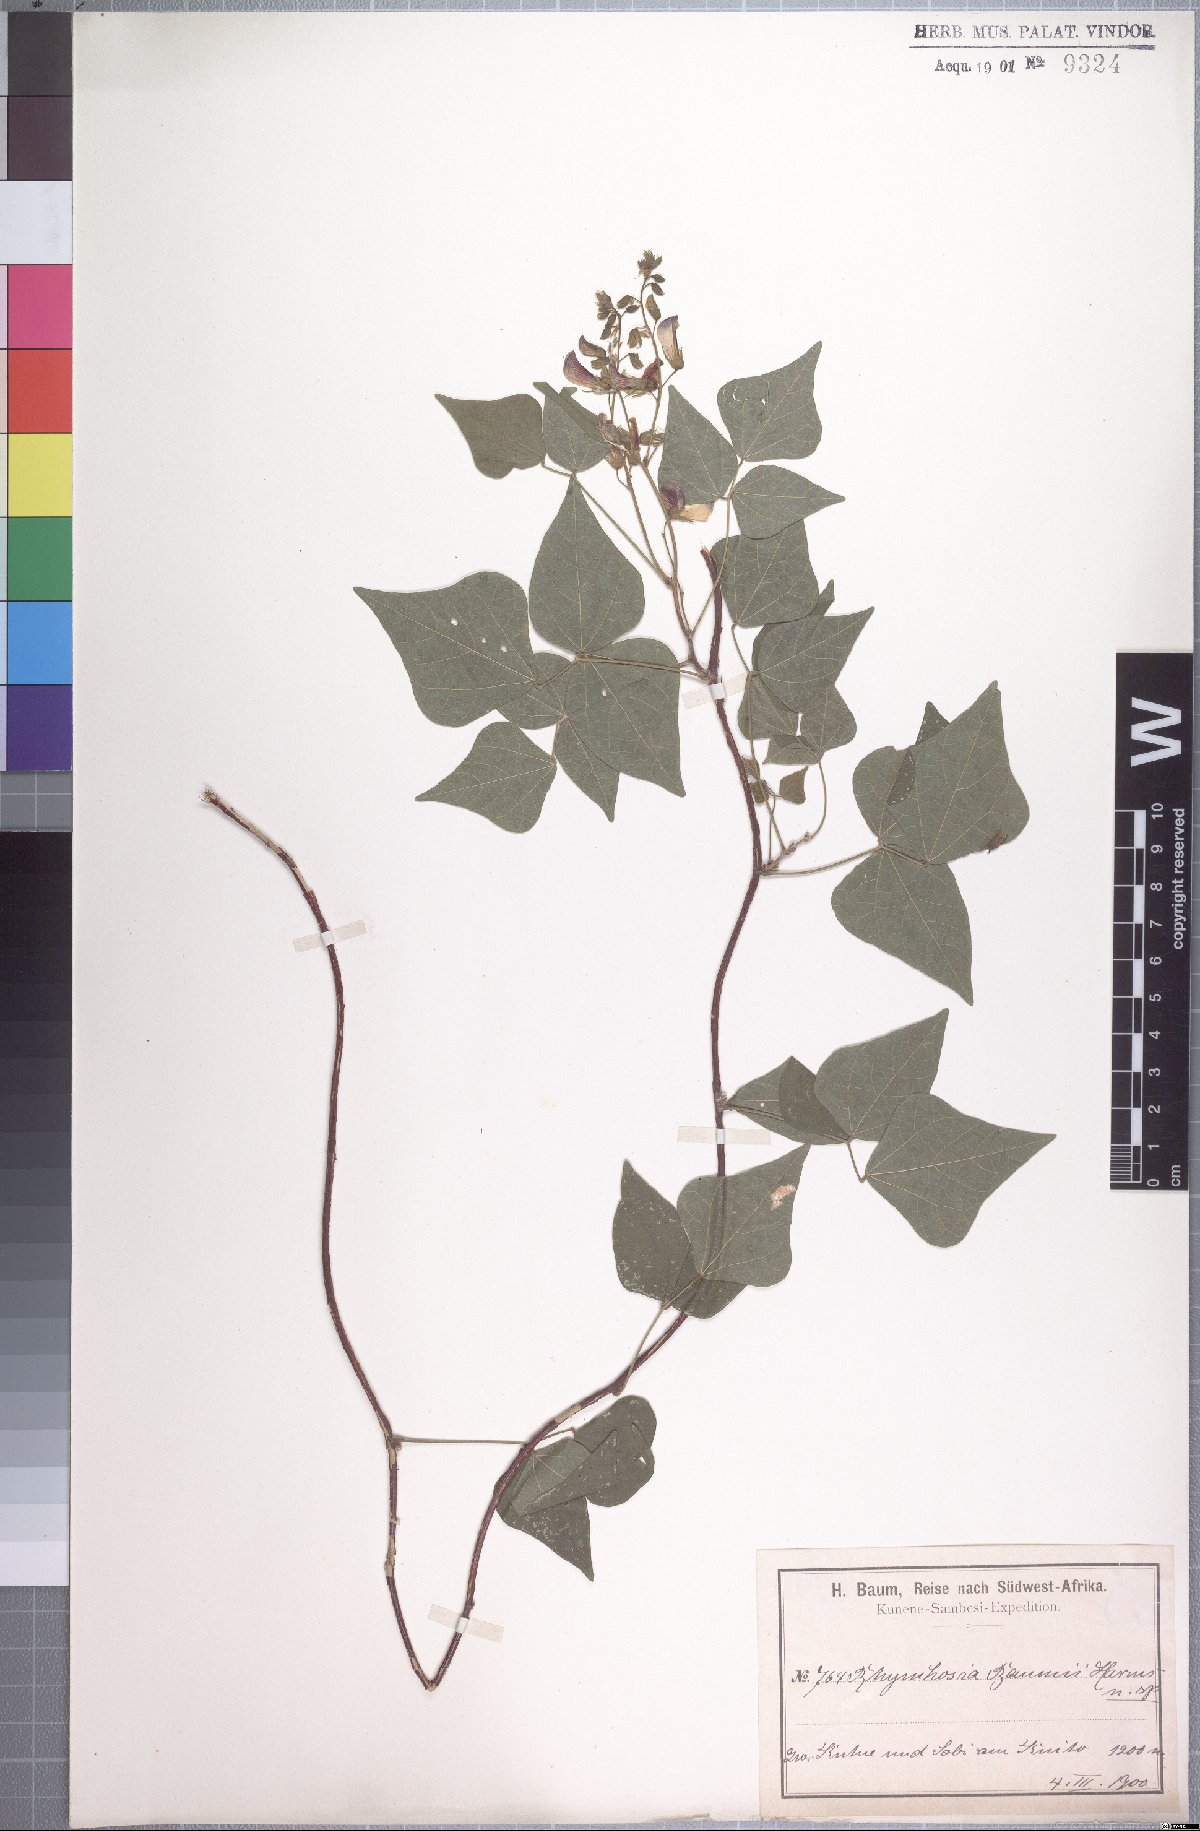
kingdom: Plantae
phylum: Tracheophyta
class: Magnoliopsida
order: Fabales
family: Fabaceae
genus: Rhynchosia
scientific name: Rhynchosia baumii
